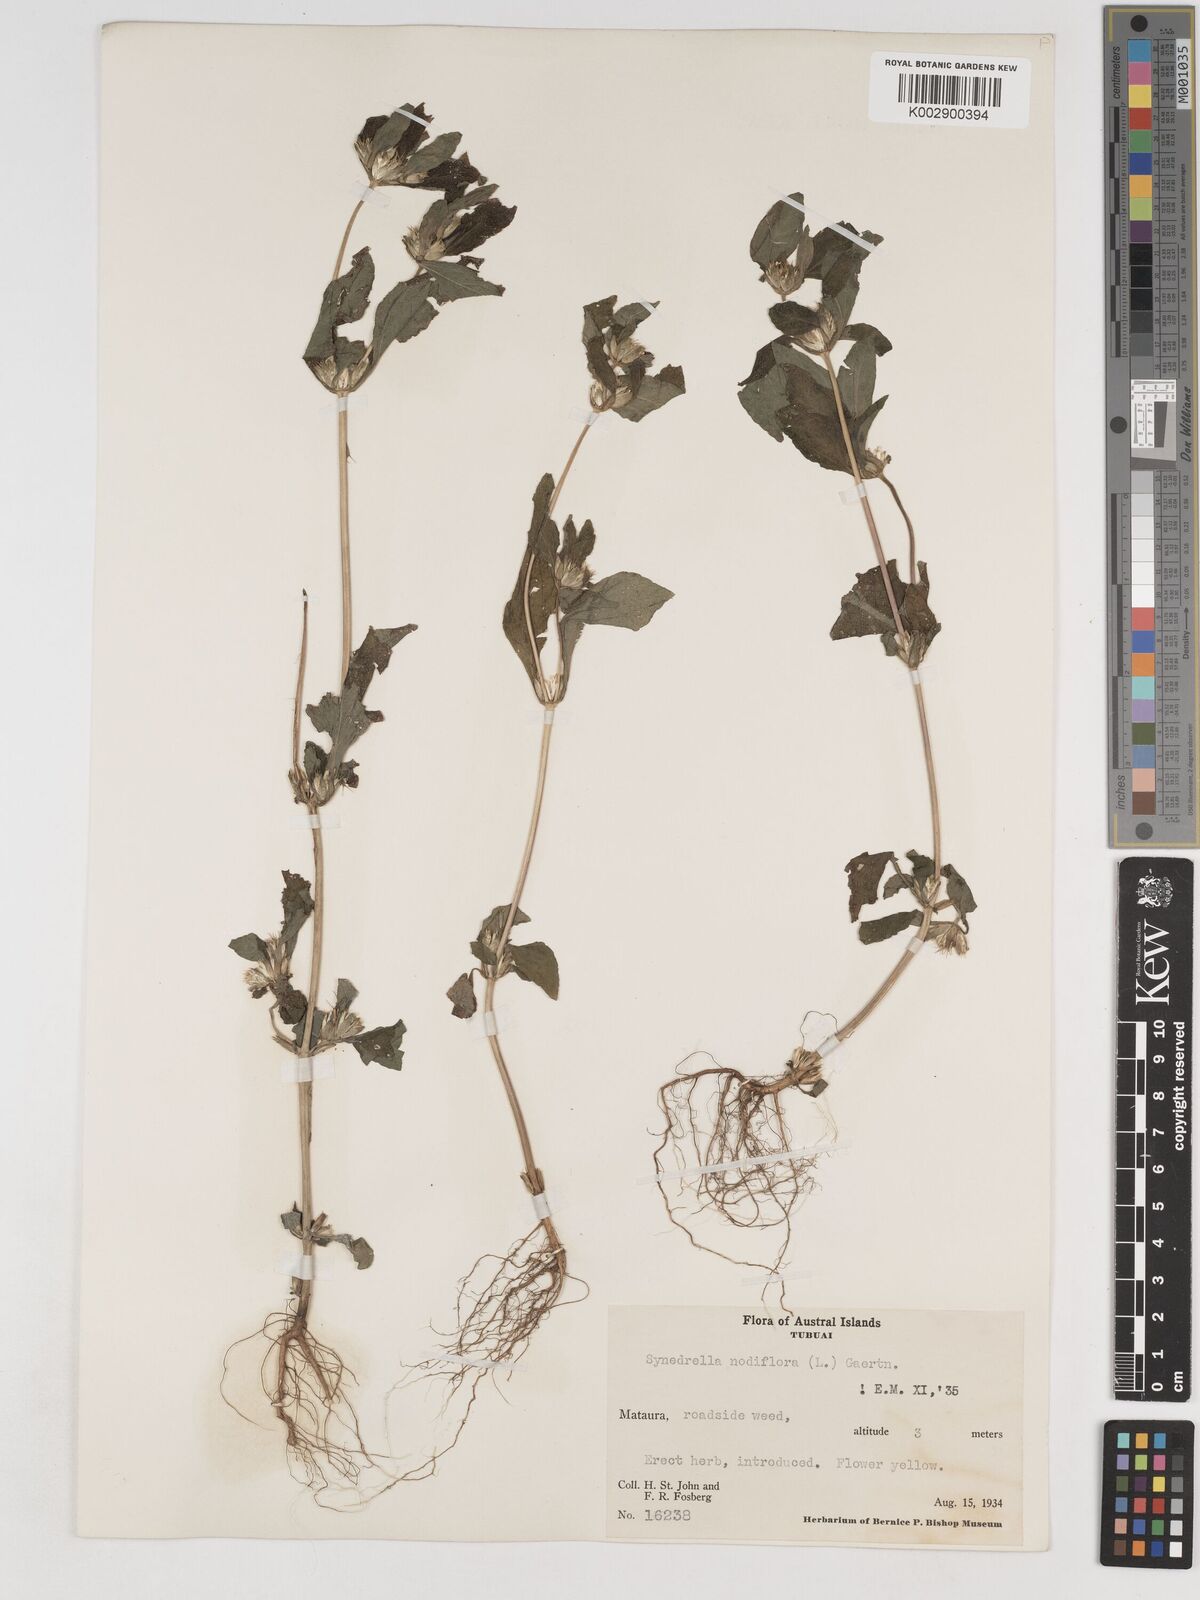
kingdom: Plantae
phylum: Tracheophyta
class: Magnoliopsida
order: Asterales
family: Asteraceae
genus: Synedrella
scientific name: Synedrella nodiflora
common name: Nodeweed
